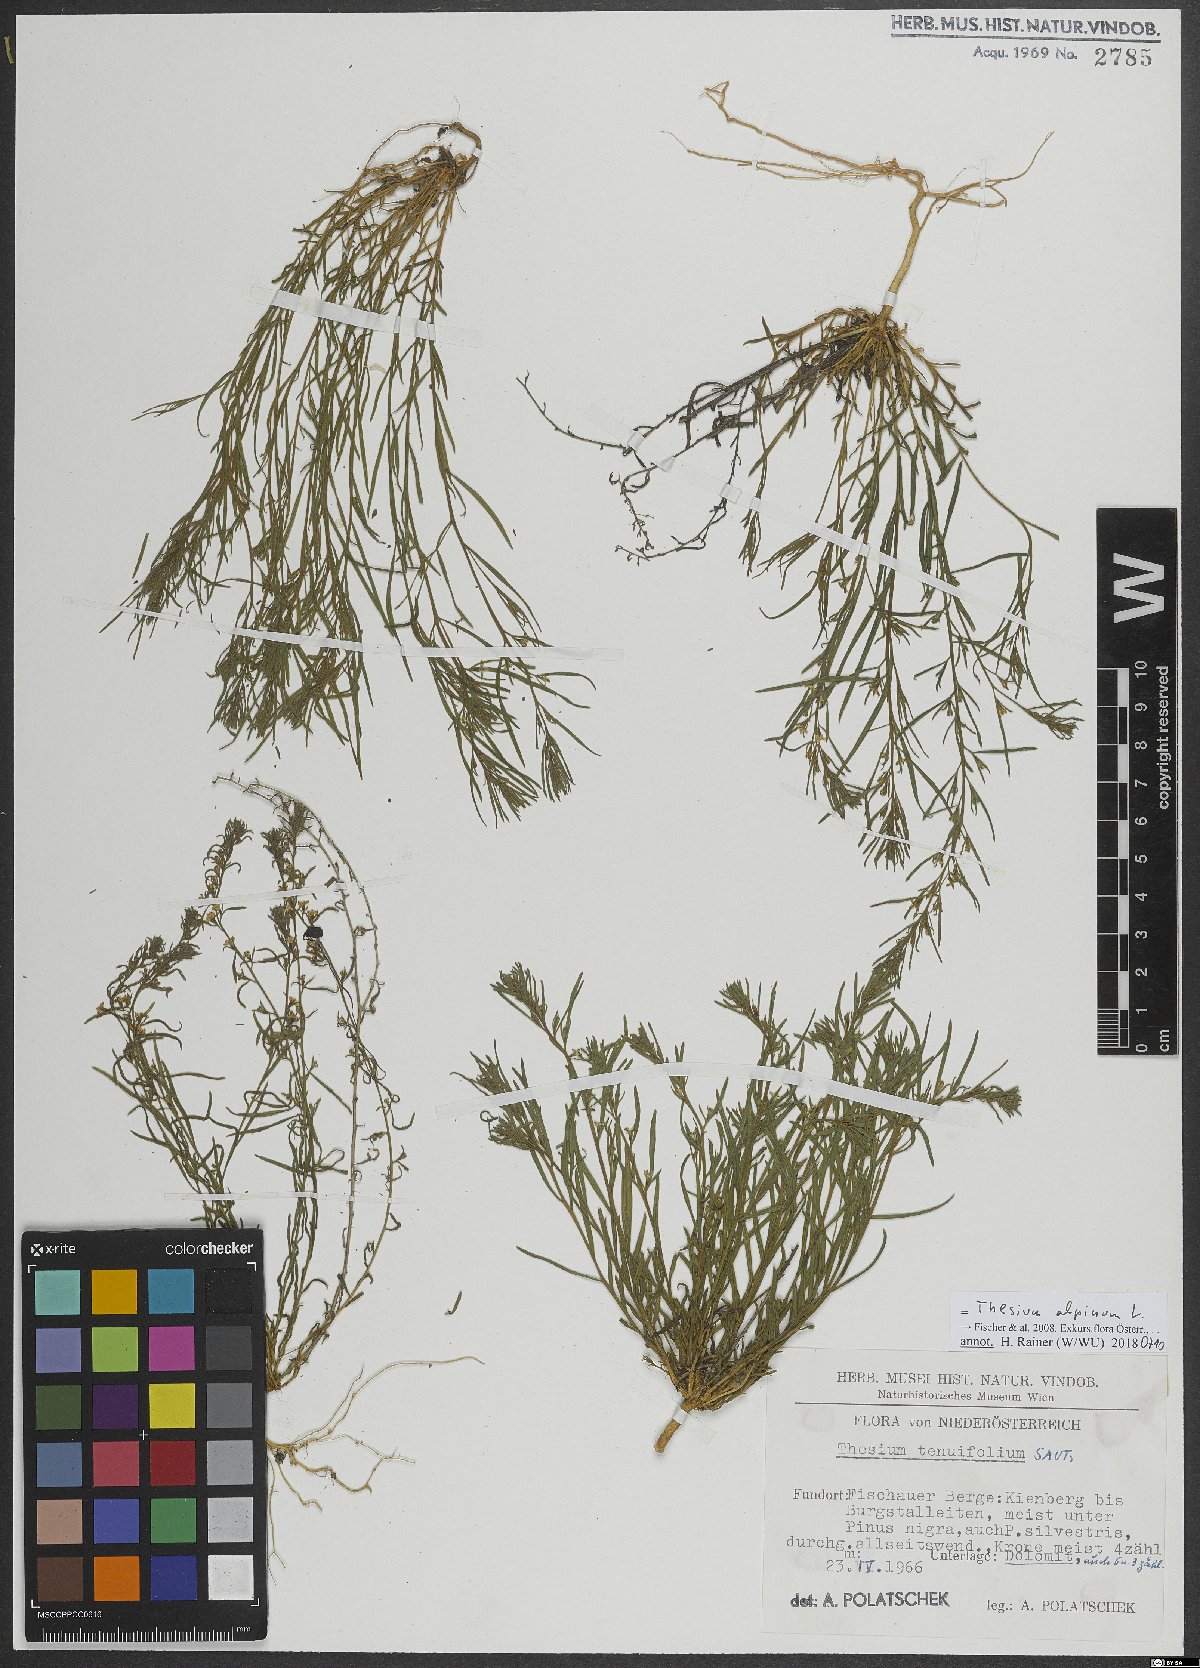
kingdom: Plantae
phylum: Tracheophyta
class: Magnoliopsida
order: Santalales
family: Thesiaceae
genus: Thesium
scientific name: Thesium alpinum
